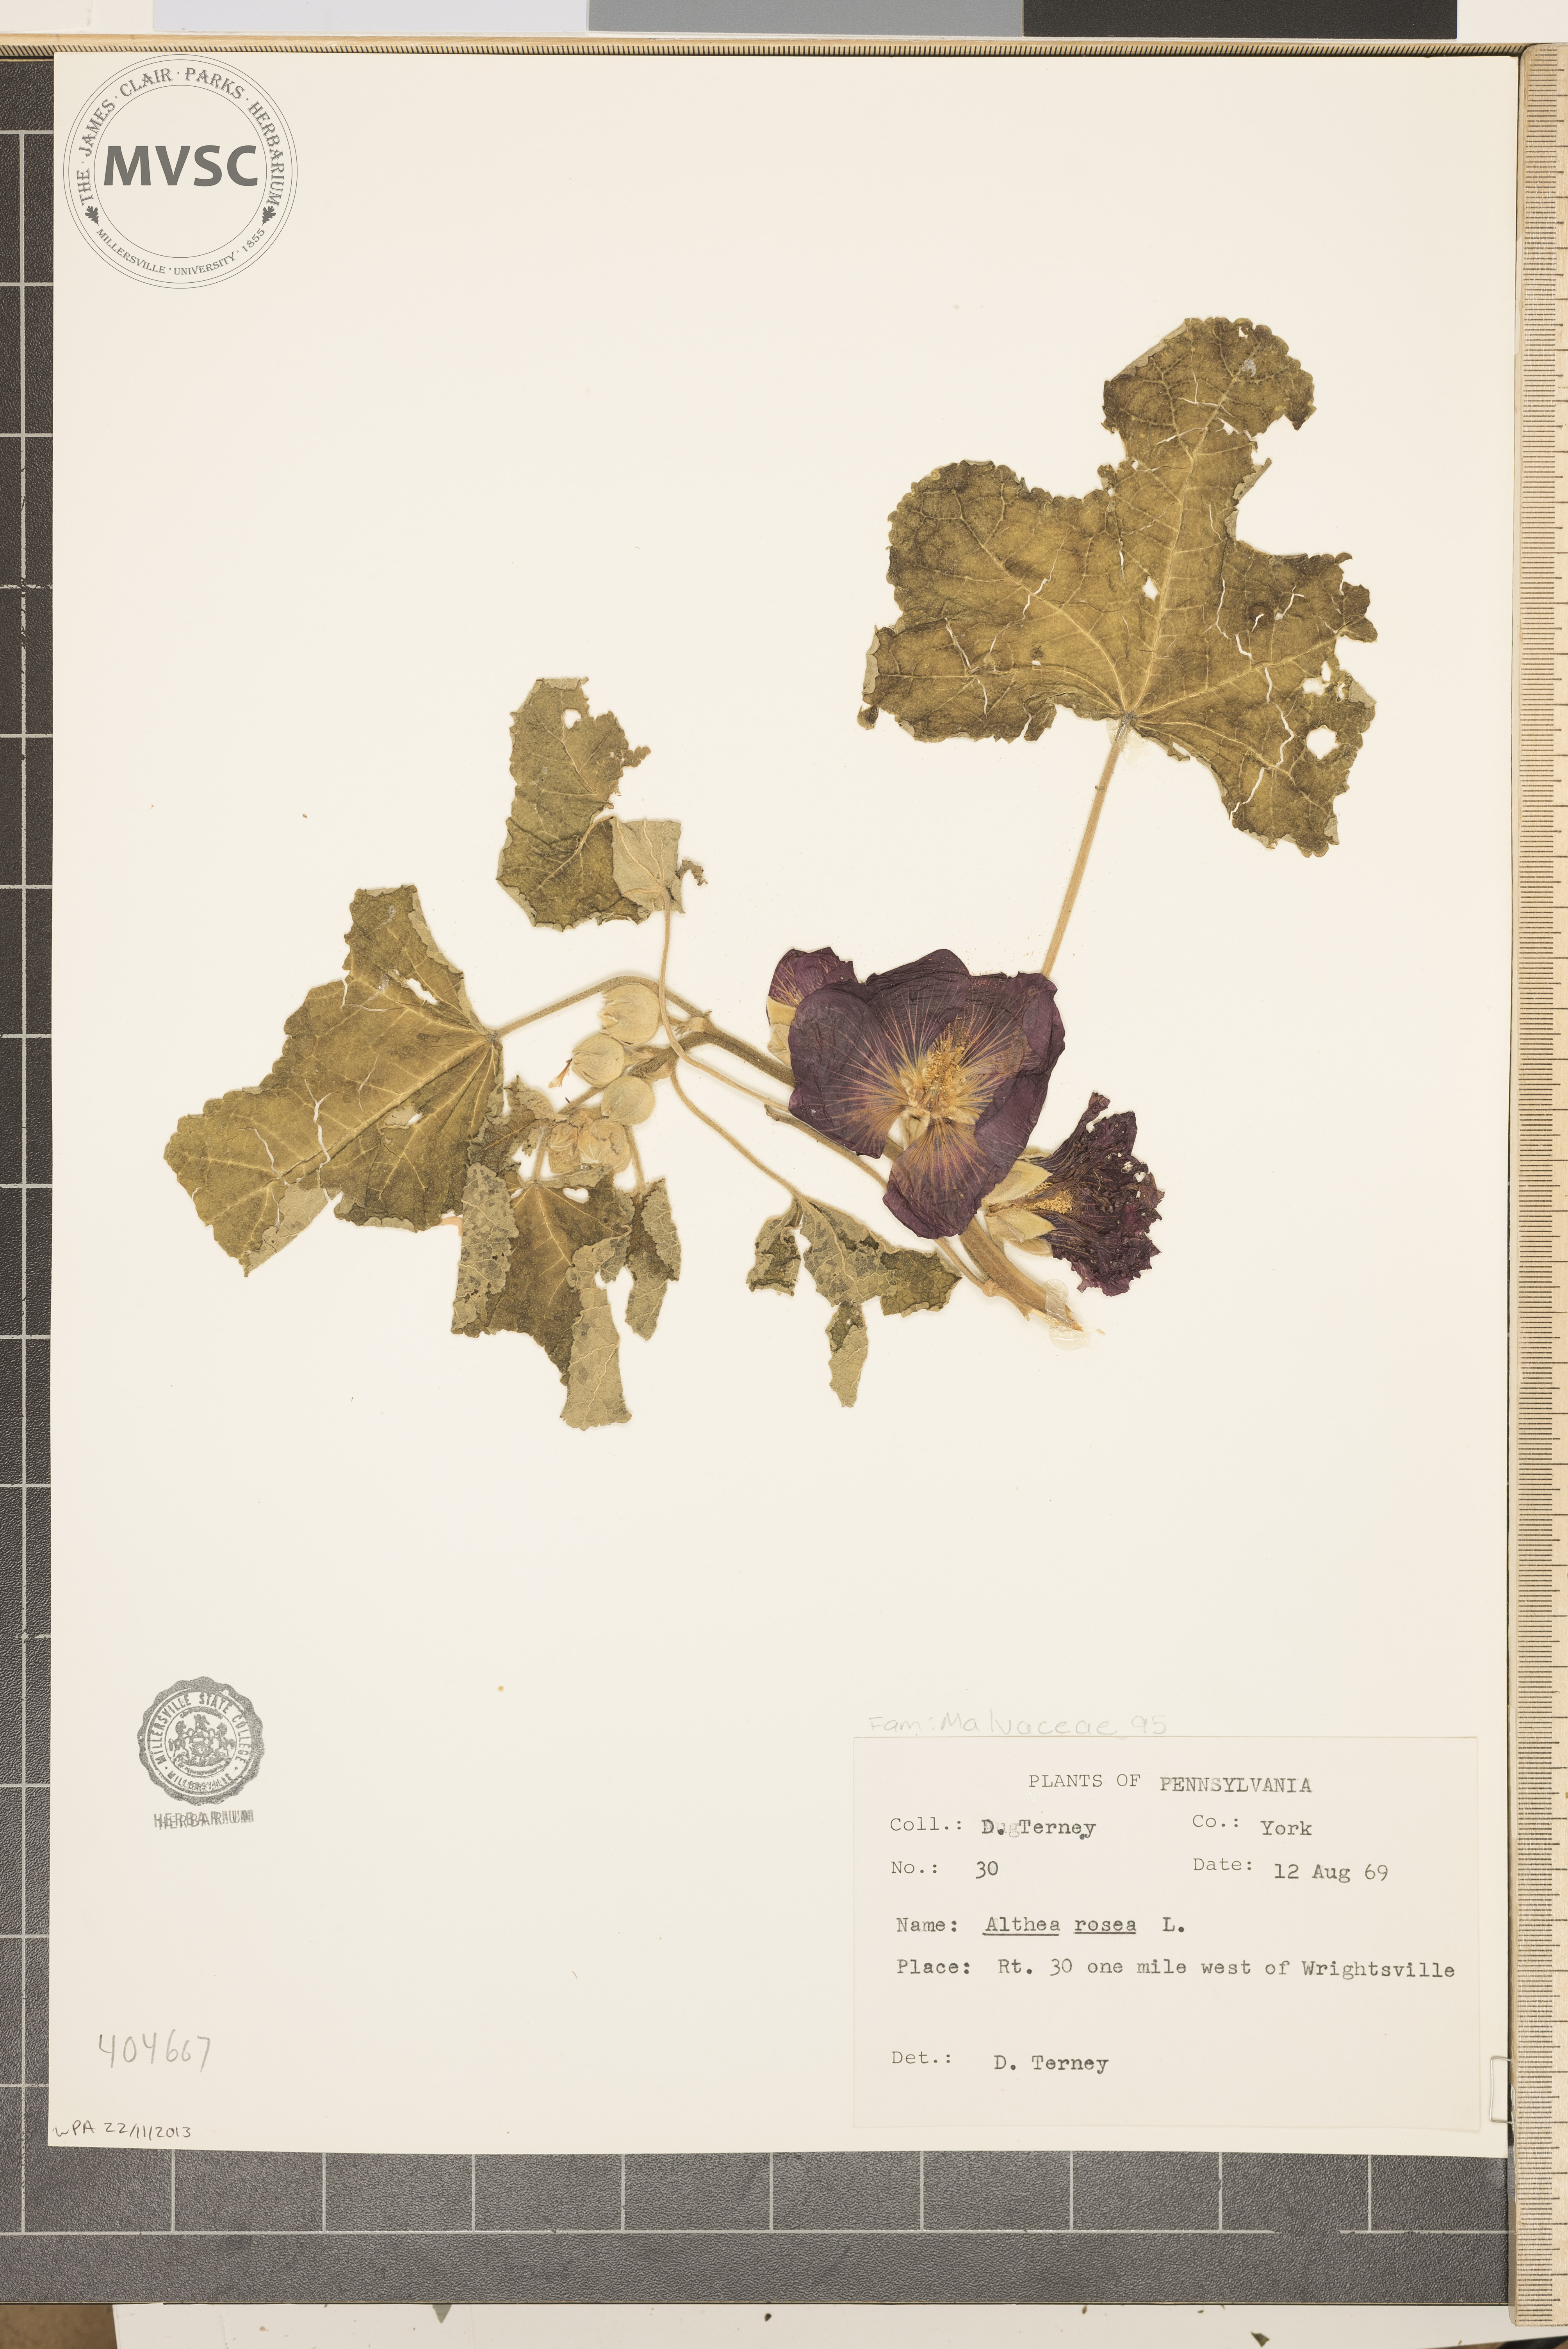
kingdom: Plantae
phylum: Tracheophyta
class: Magnoliopsida
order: Malvales
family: Malvaceae
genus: Althaea
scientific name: Althaea rosea
